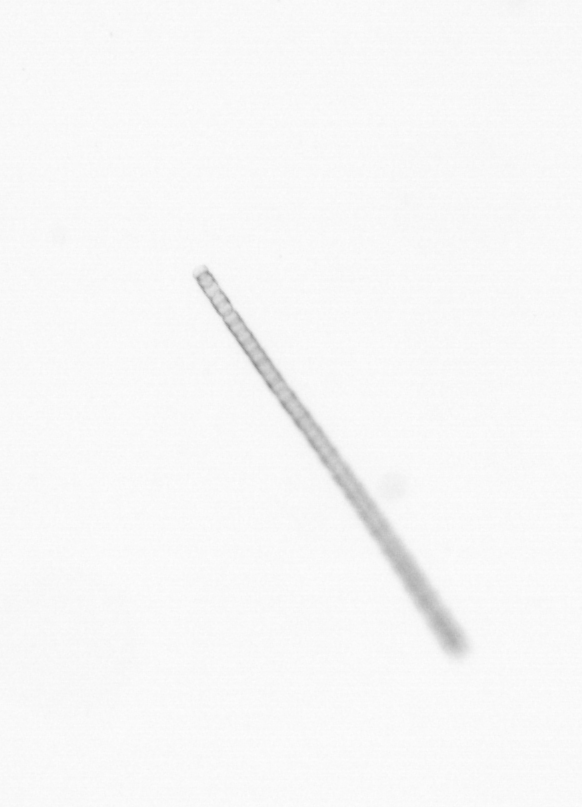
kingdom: Chromista
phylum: Ochrophyta
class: Bacillariophyceae
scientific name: Bacillariophyceae
